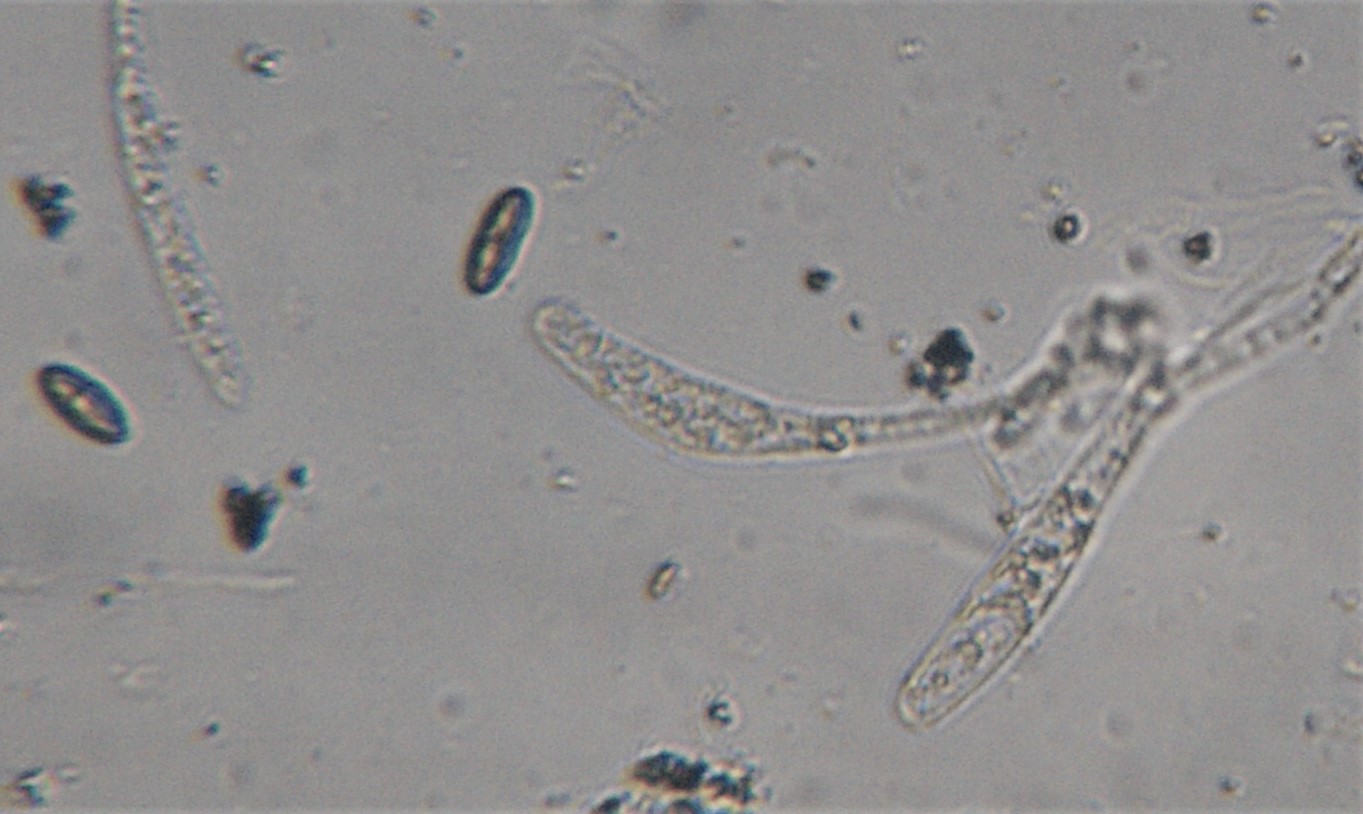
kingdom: Fungi
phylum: Ascomycota
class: Sordariomycetes
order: Xylariales
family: Xylariaceae
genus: Nemania
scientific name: Nemania
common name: kuldyne
